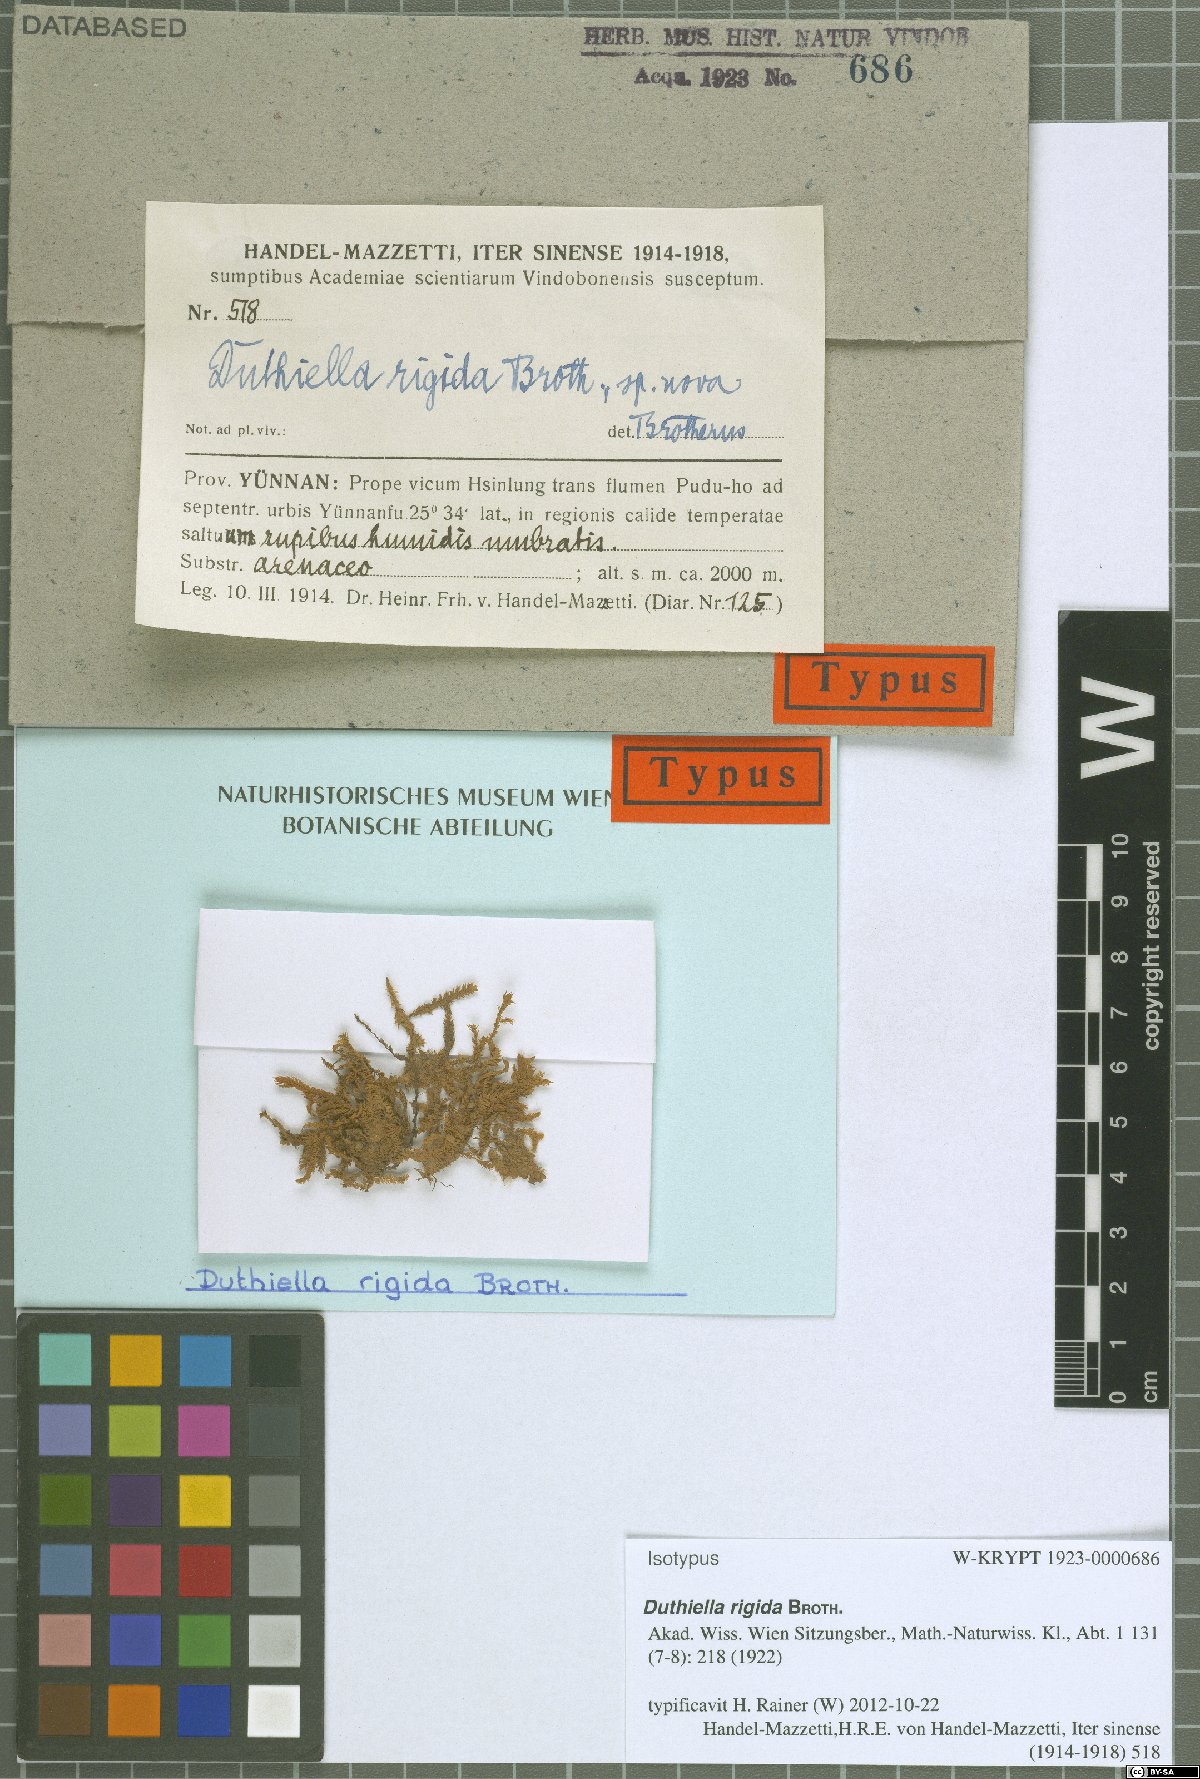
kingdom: Plantae
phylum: Bryophyta
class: Bryopsida
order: Hypnales
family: Meteoriaceae
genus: Duthiella
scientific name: Duthiella flaccida
